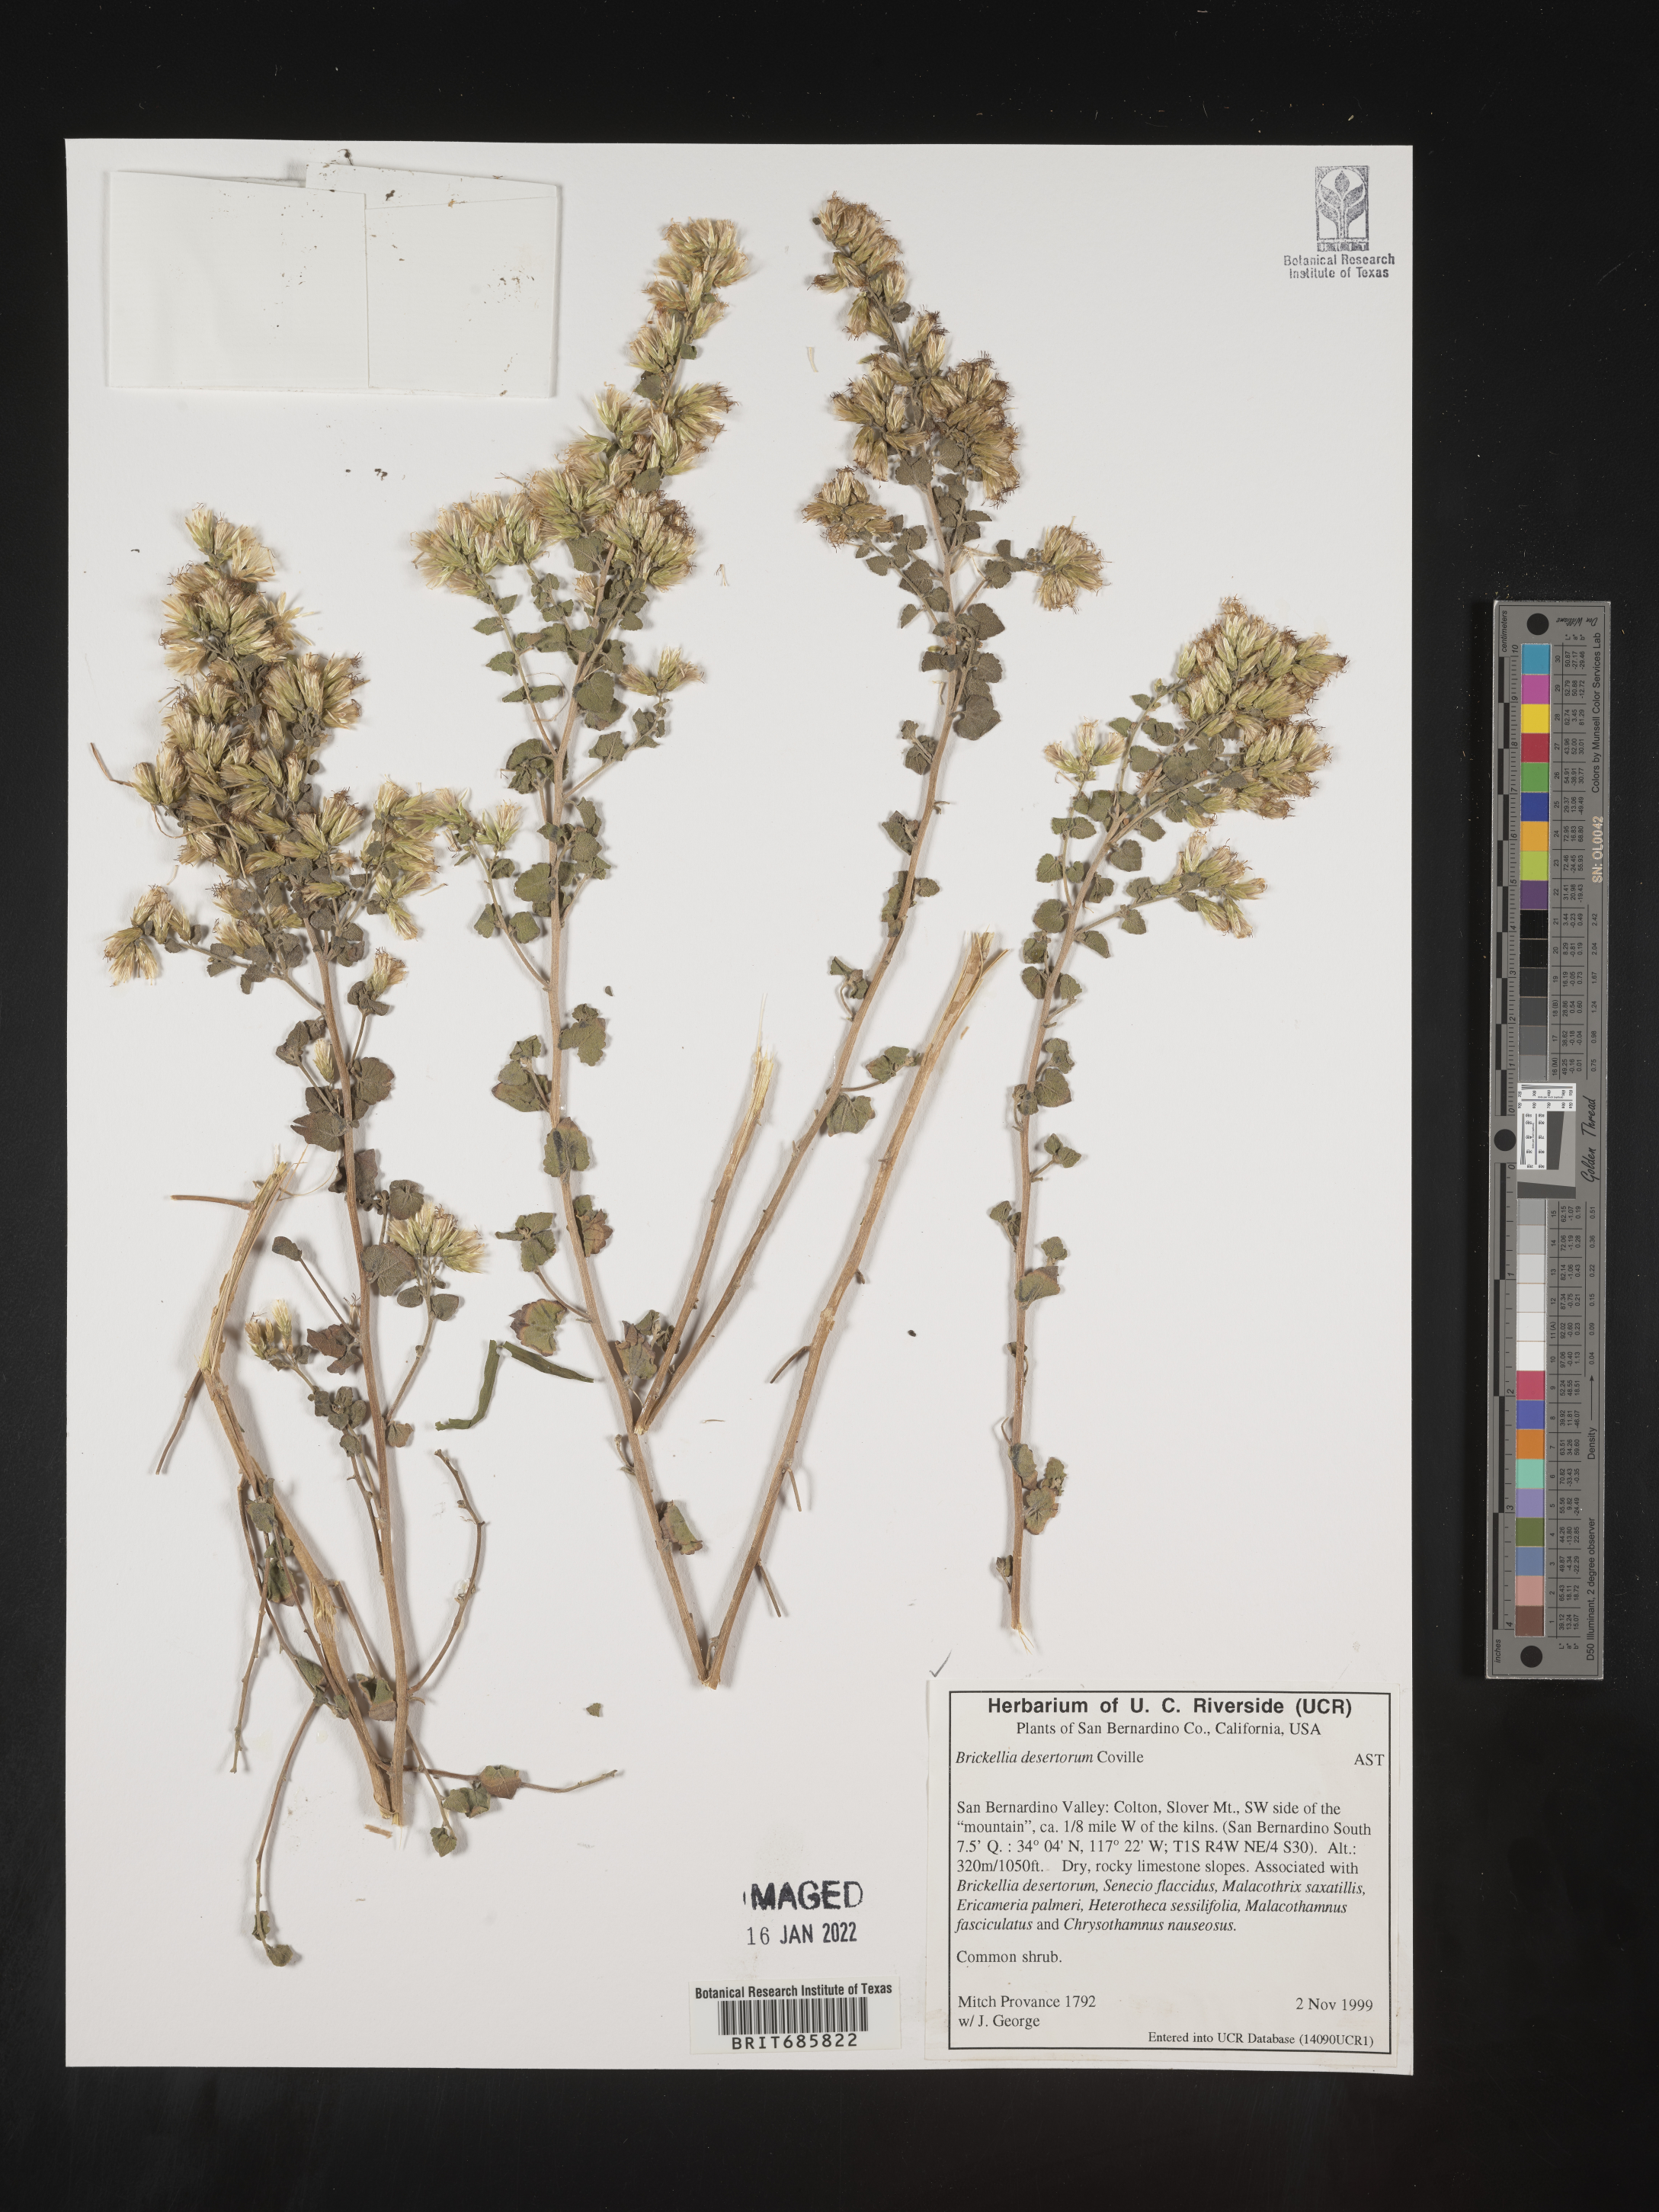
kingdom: Plantae
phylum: Tracheophyta
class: Magnoliopsida
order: Asterales
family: Asteraceae
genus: Brickellia
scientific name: Brickellia desertorum
